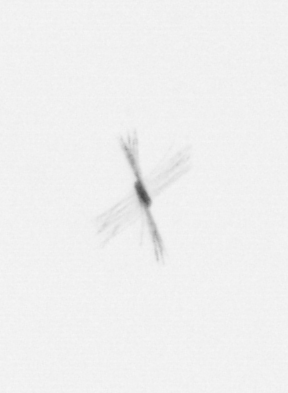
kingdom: Chromista
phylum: Ochrophyta
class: Bacillariophyceae
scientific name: Bacillariophyceae
